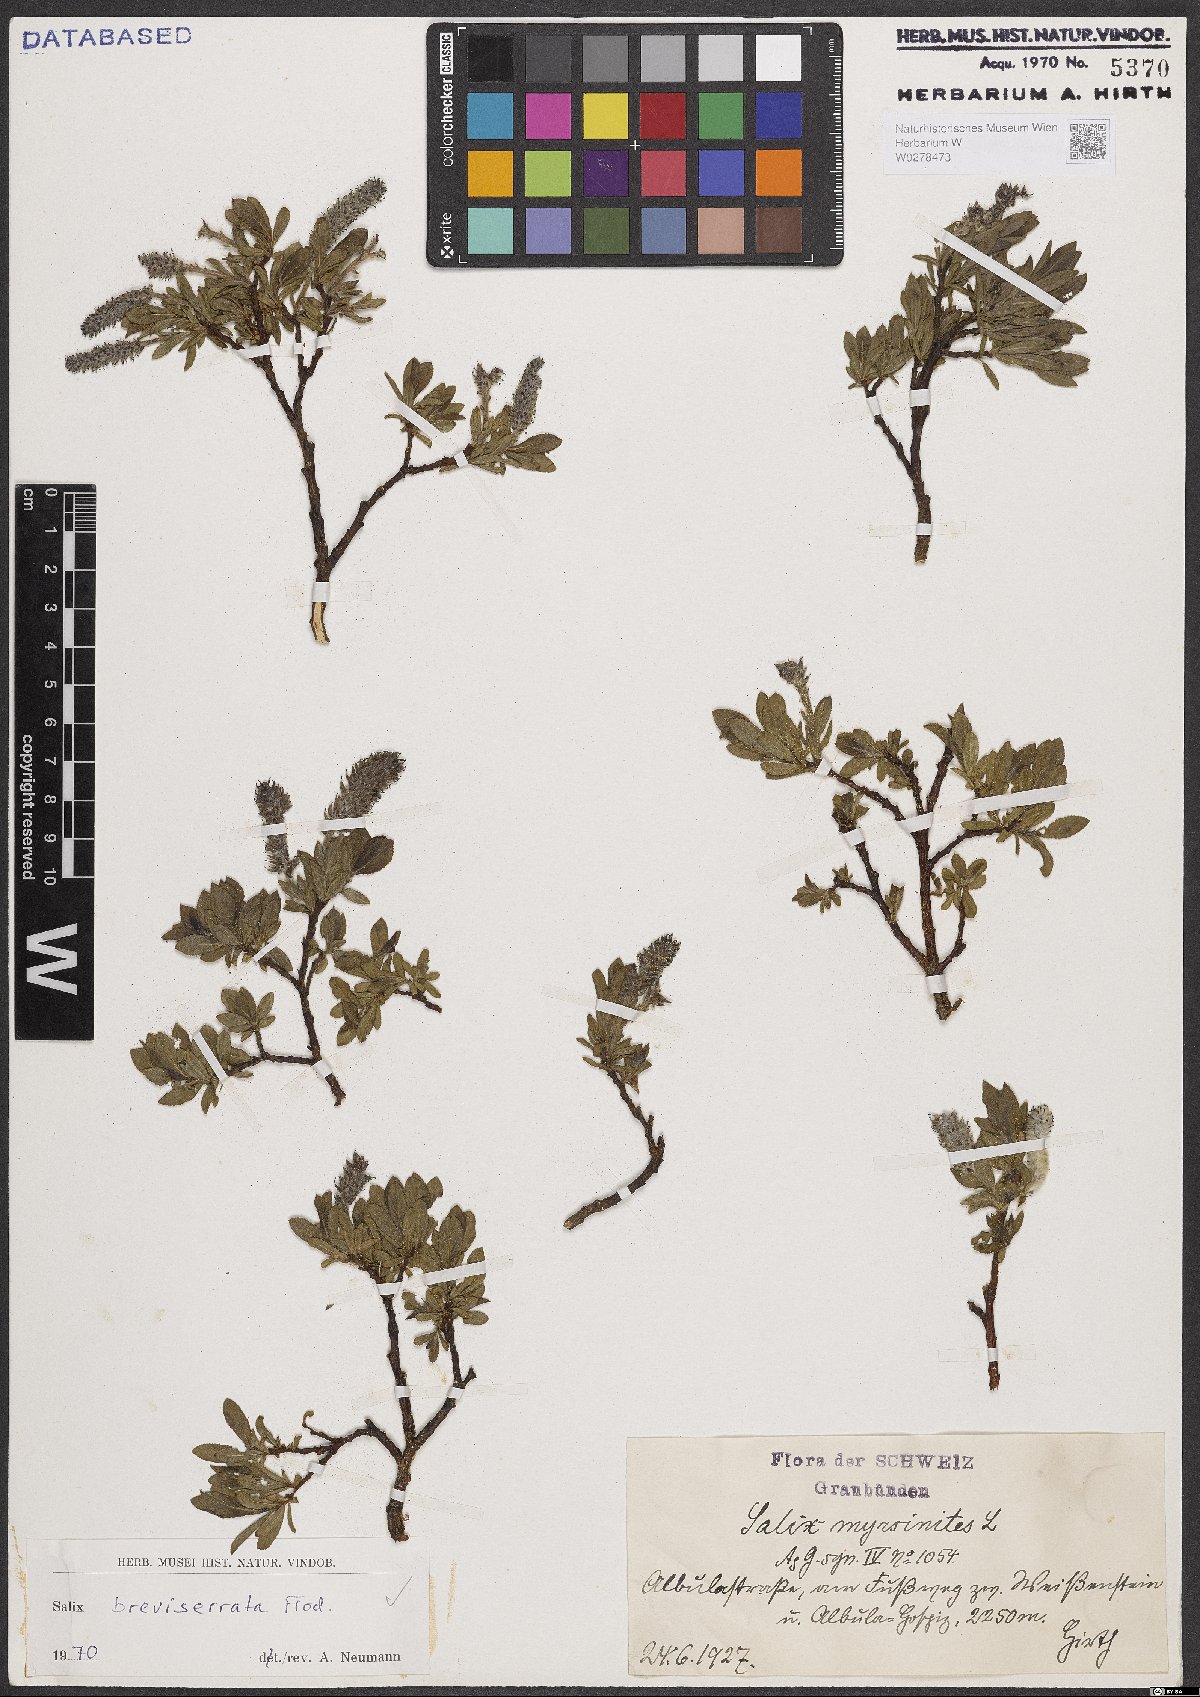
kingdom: Plantae
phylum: Tracheophyta
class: Magnoliopsida
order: Malpighiales
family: Salicaceae
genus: Salix
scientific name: Salix breviserrata
